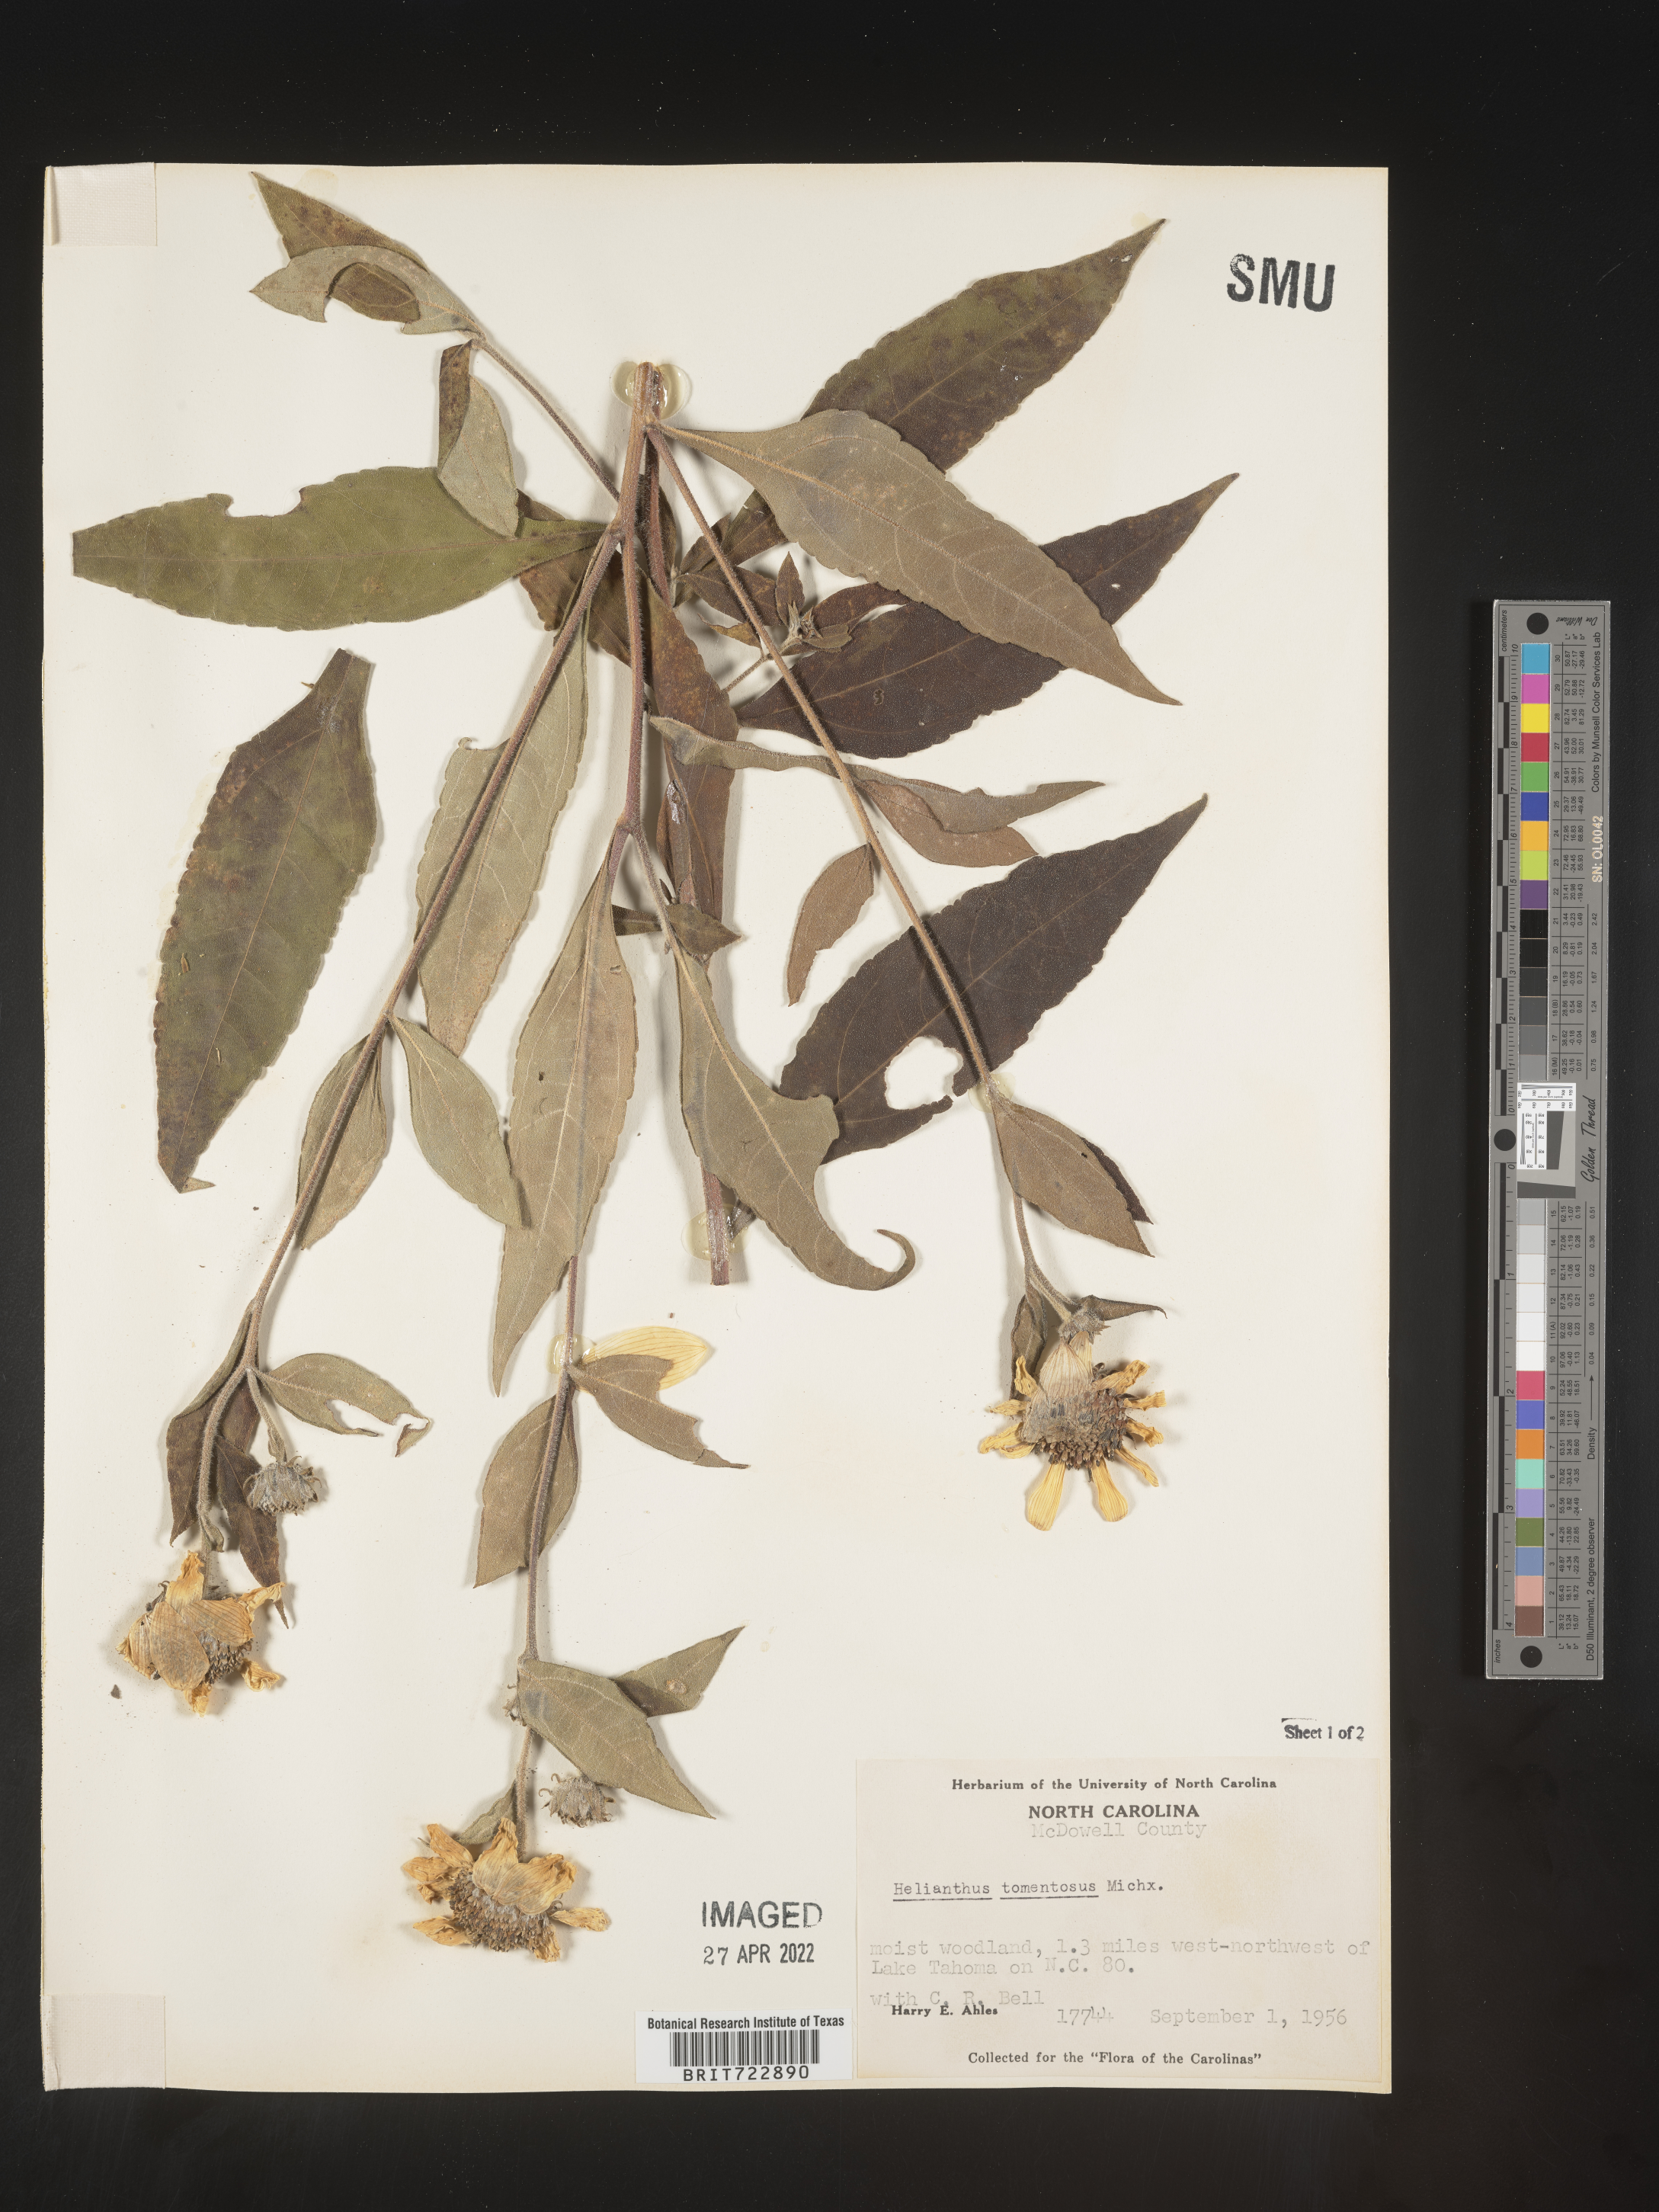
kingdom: Plantae
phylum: Tracheophyta
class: Magnoliopsida
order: Asterales
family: Asteraceae
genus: Helianthus
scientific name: Helianthus tuberosus
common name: Jerusalem artichoke
